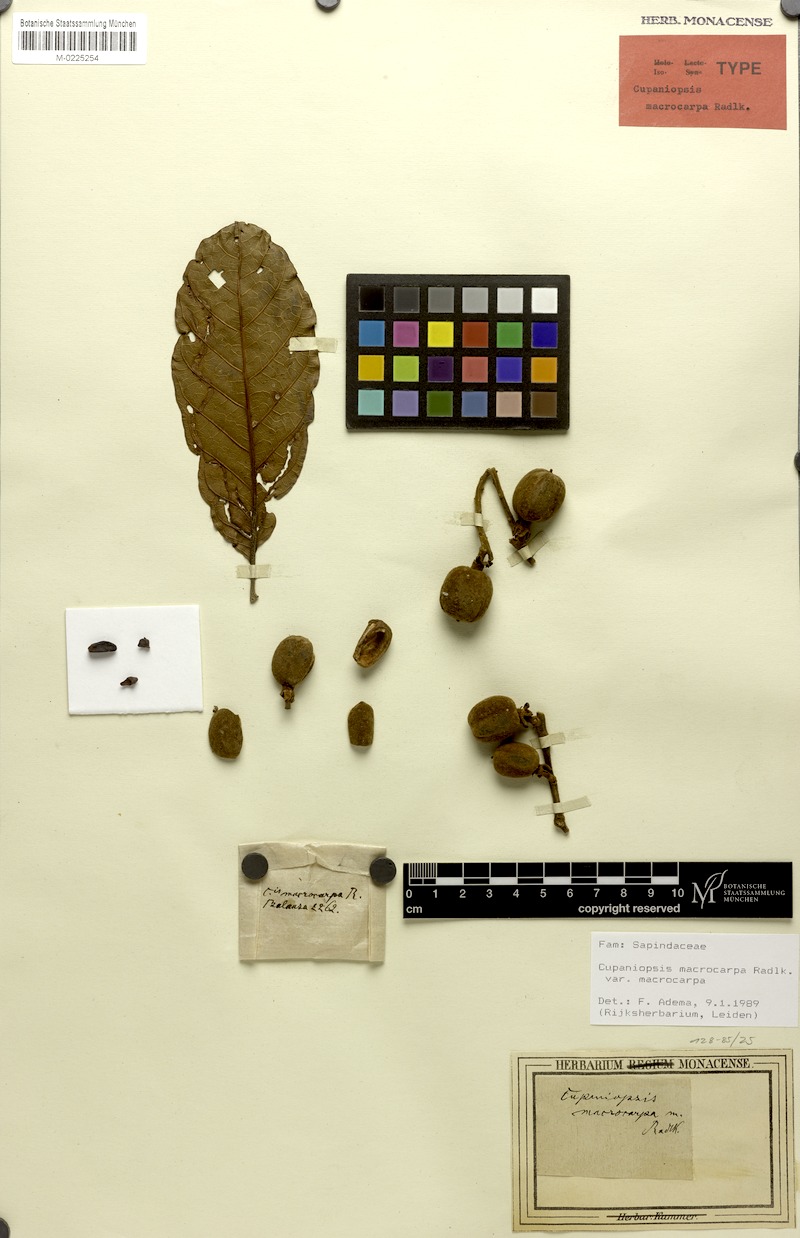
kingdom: Plantae
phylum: Tracheophyta
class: Magnoliopsida
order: Sapindales
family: Sapindaceae
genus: Cupaniopsis
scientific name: Cupaniopsis macrocarpa
